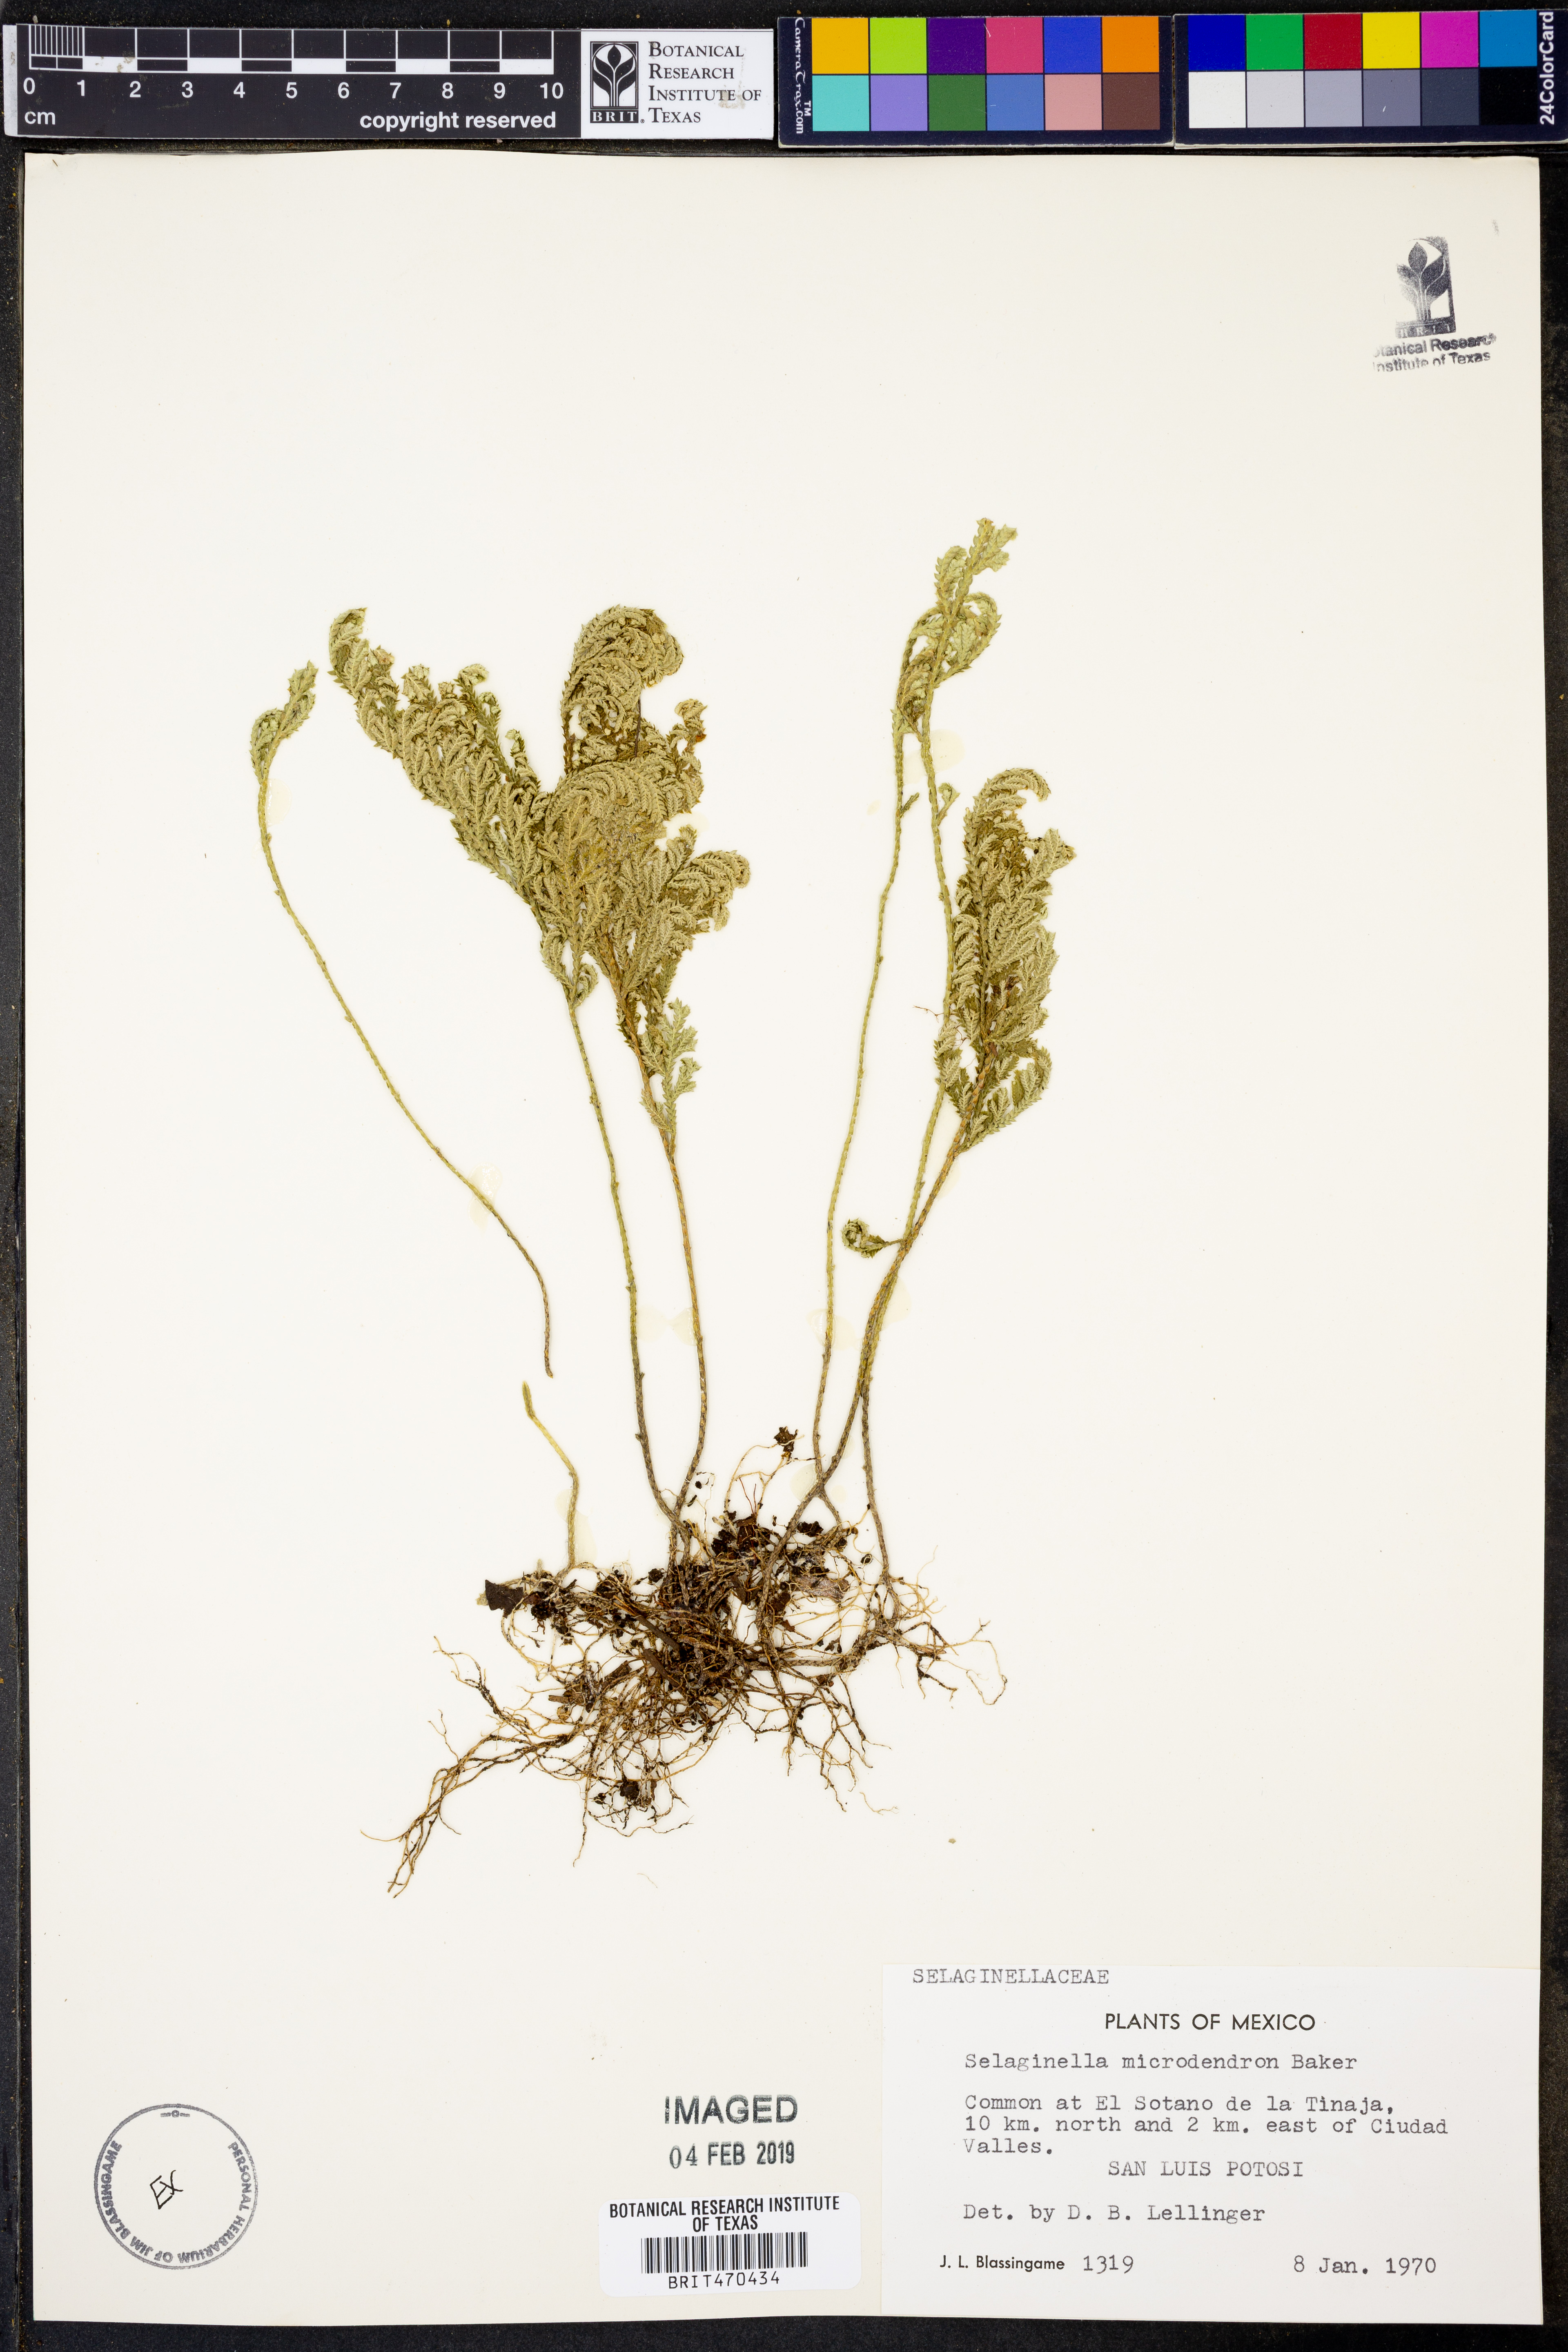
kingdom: Plantae
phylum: Tracheophyta
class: Lycopodiopsida
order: Selaginellales
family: Selaginellaceae
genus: Selaginella
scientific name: Selaginella microdendron
